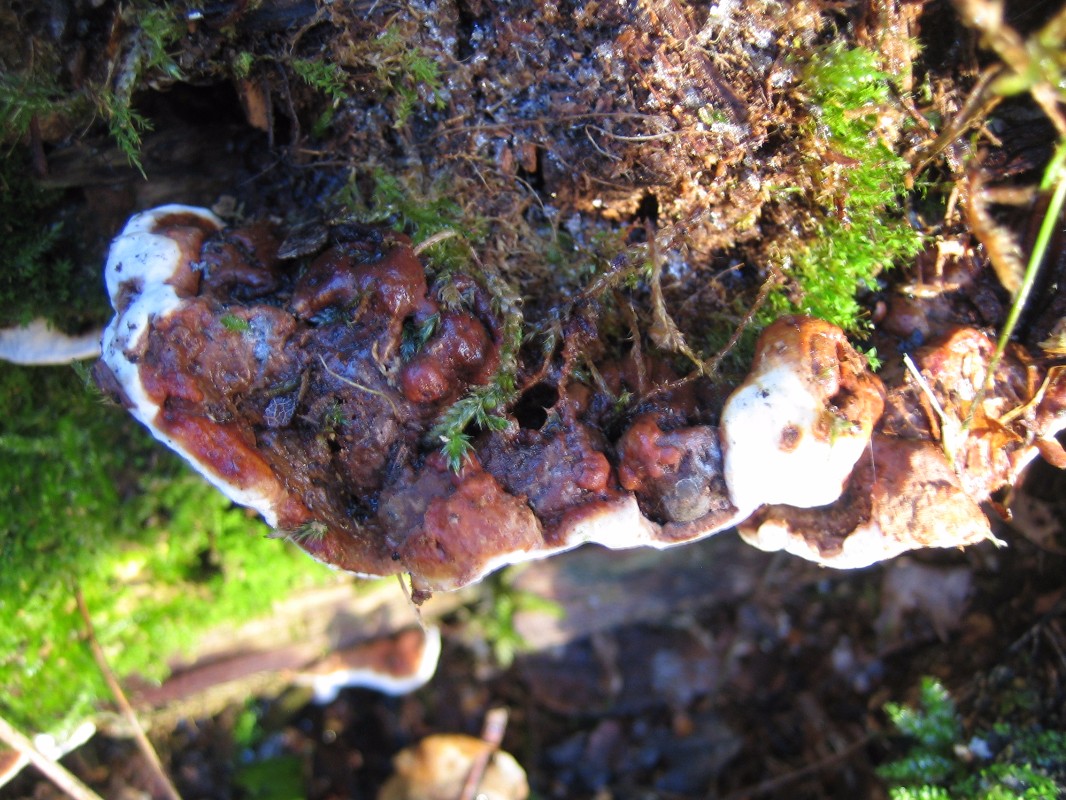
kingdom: Fungi
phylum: Basidiomycota
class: Agaricomycetes
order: Polyporales
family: Fomitopsidaceae
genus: Fomitopsis
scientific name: Fomitopsis pinicola
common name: randbæltet hovporesvamp
